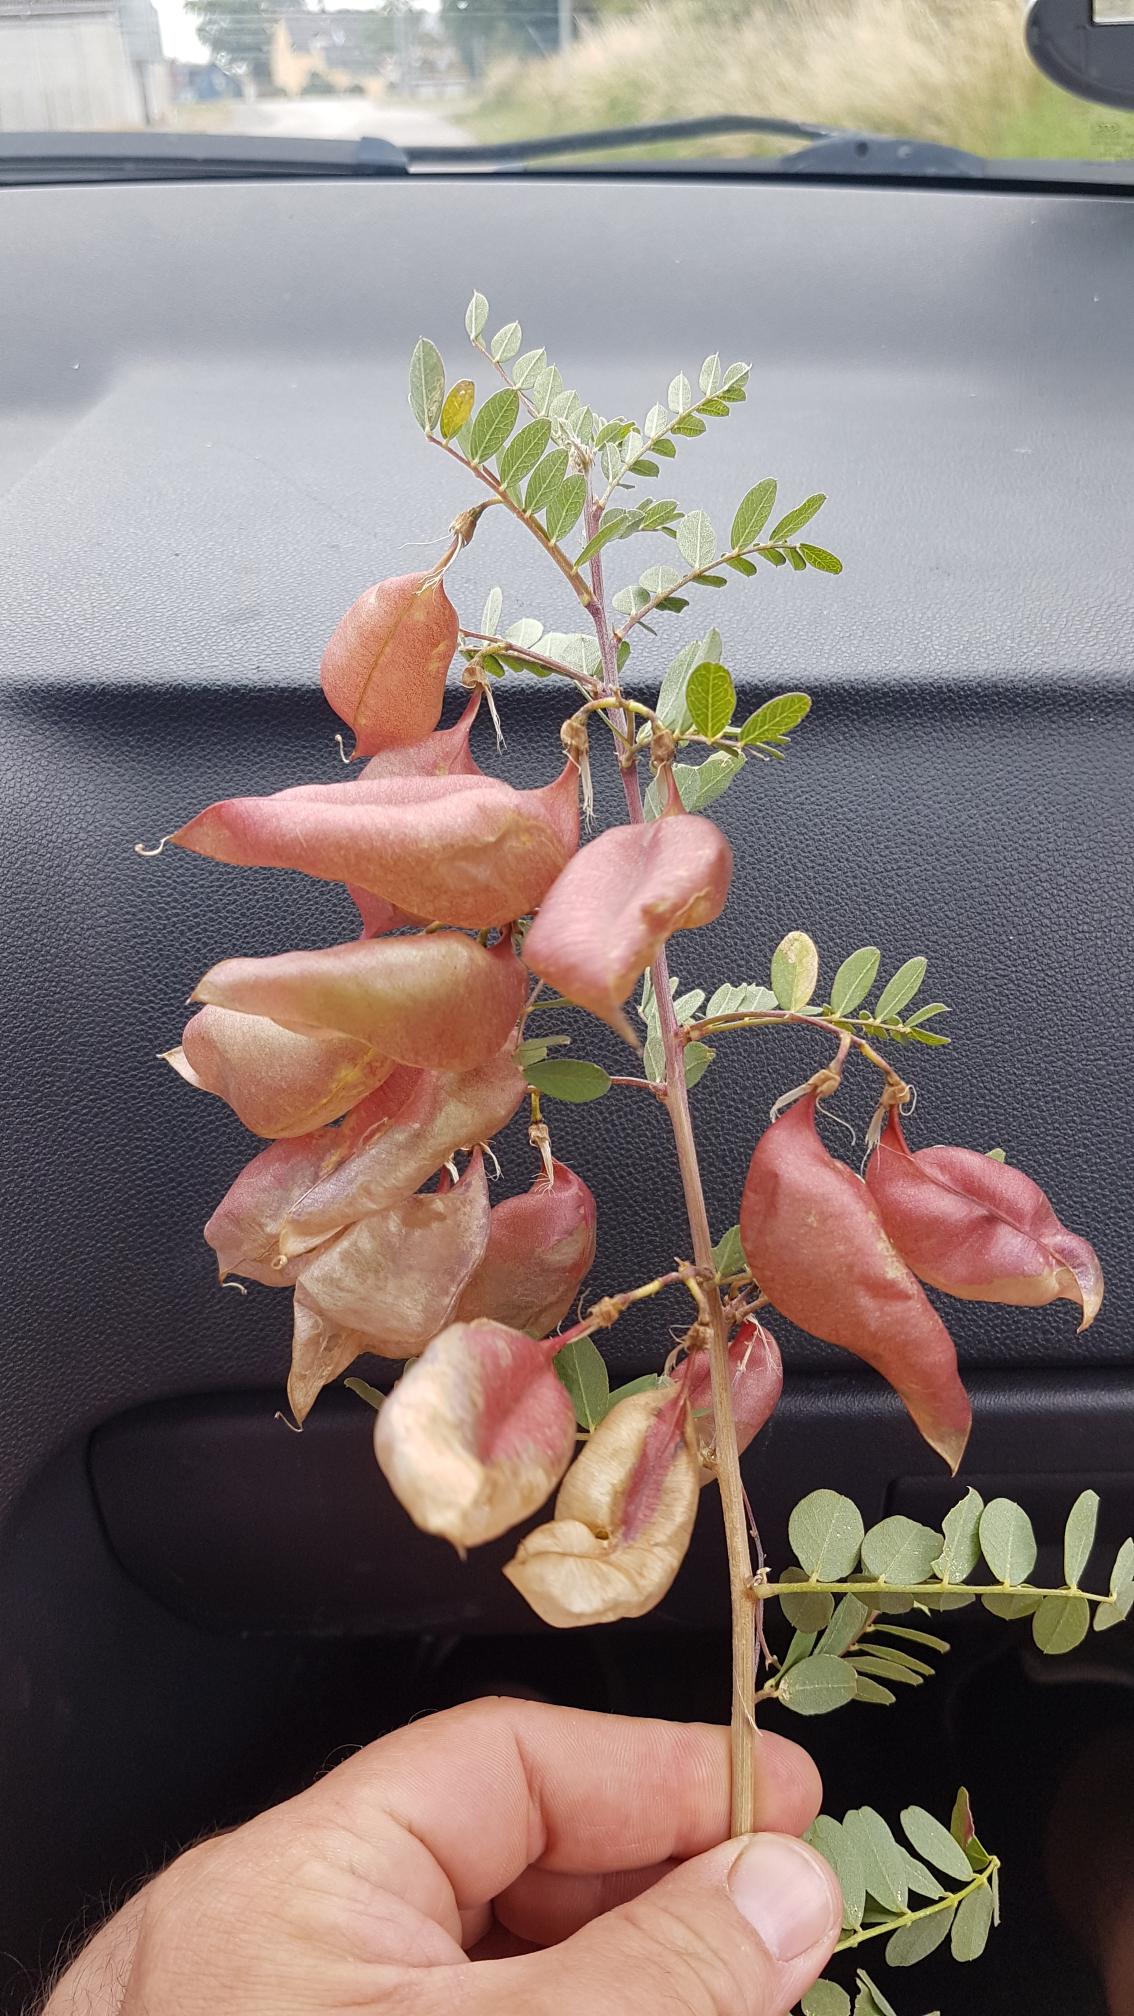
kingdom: Plantae
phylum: Tracheophyta
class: Magnoliopsida
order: Fabales
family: Fabaceae
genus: Colutea
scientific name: Colutea arborescens
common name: Almindelig blærebælg
